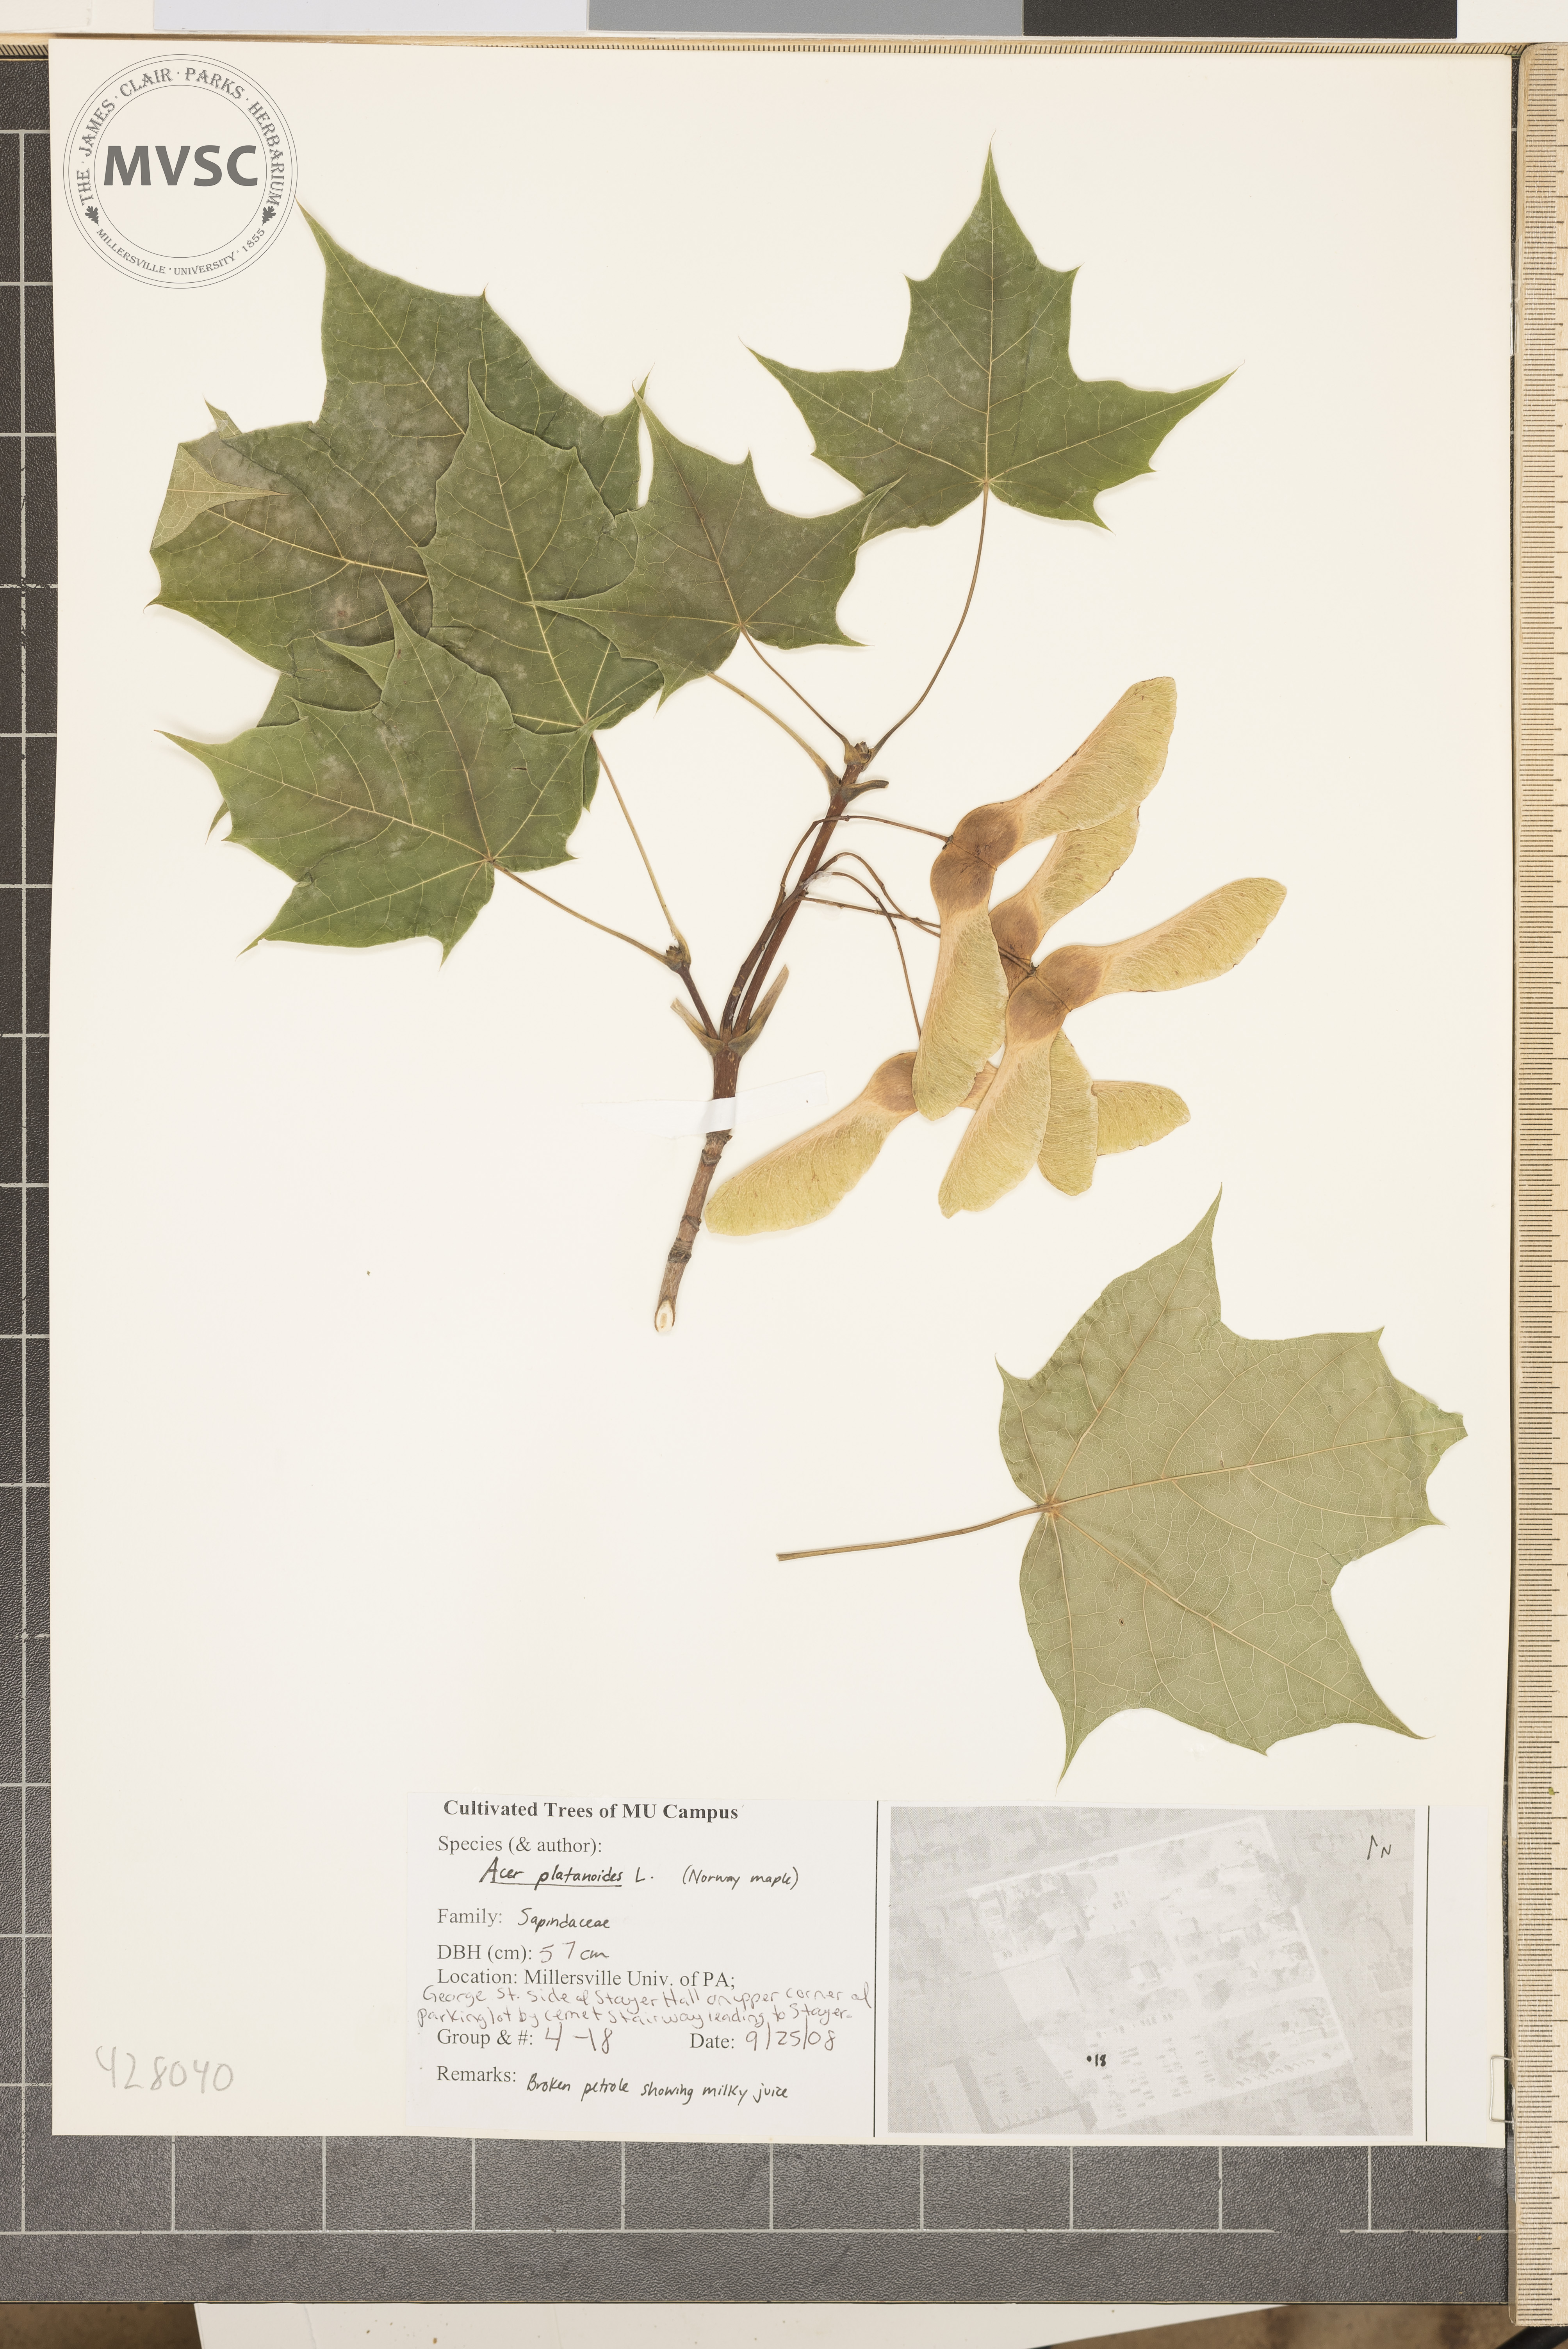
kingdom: Plantae
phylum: Tracheophyta
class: Magnoliopsida
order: Sapindales
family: Sapindaceae
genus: Acer
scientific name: Acer platanoides
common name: Norway Maple
